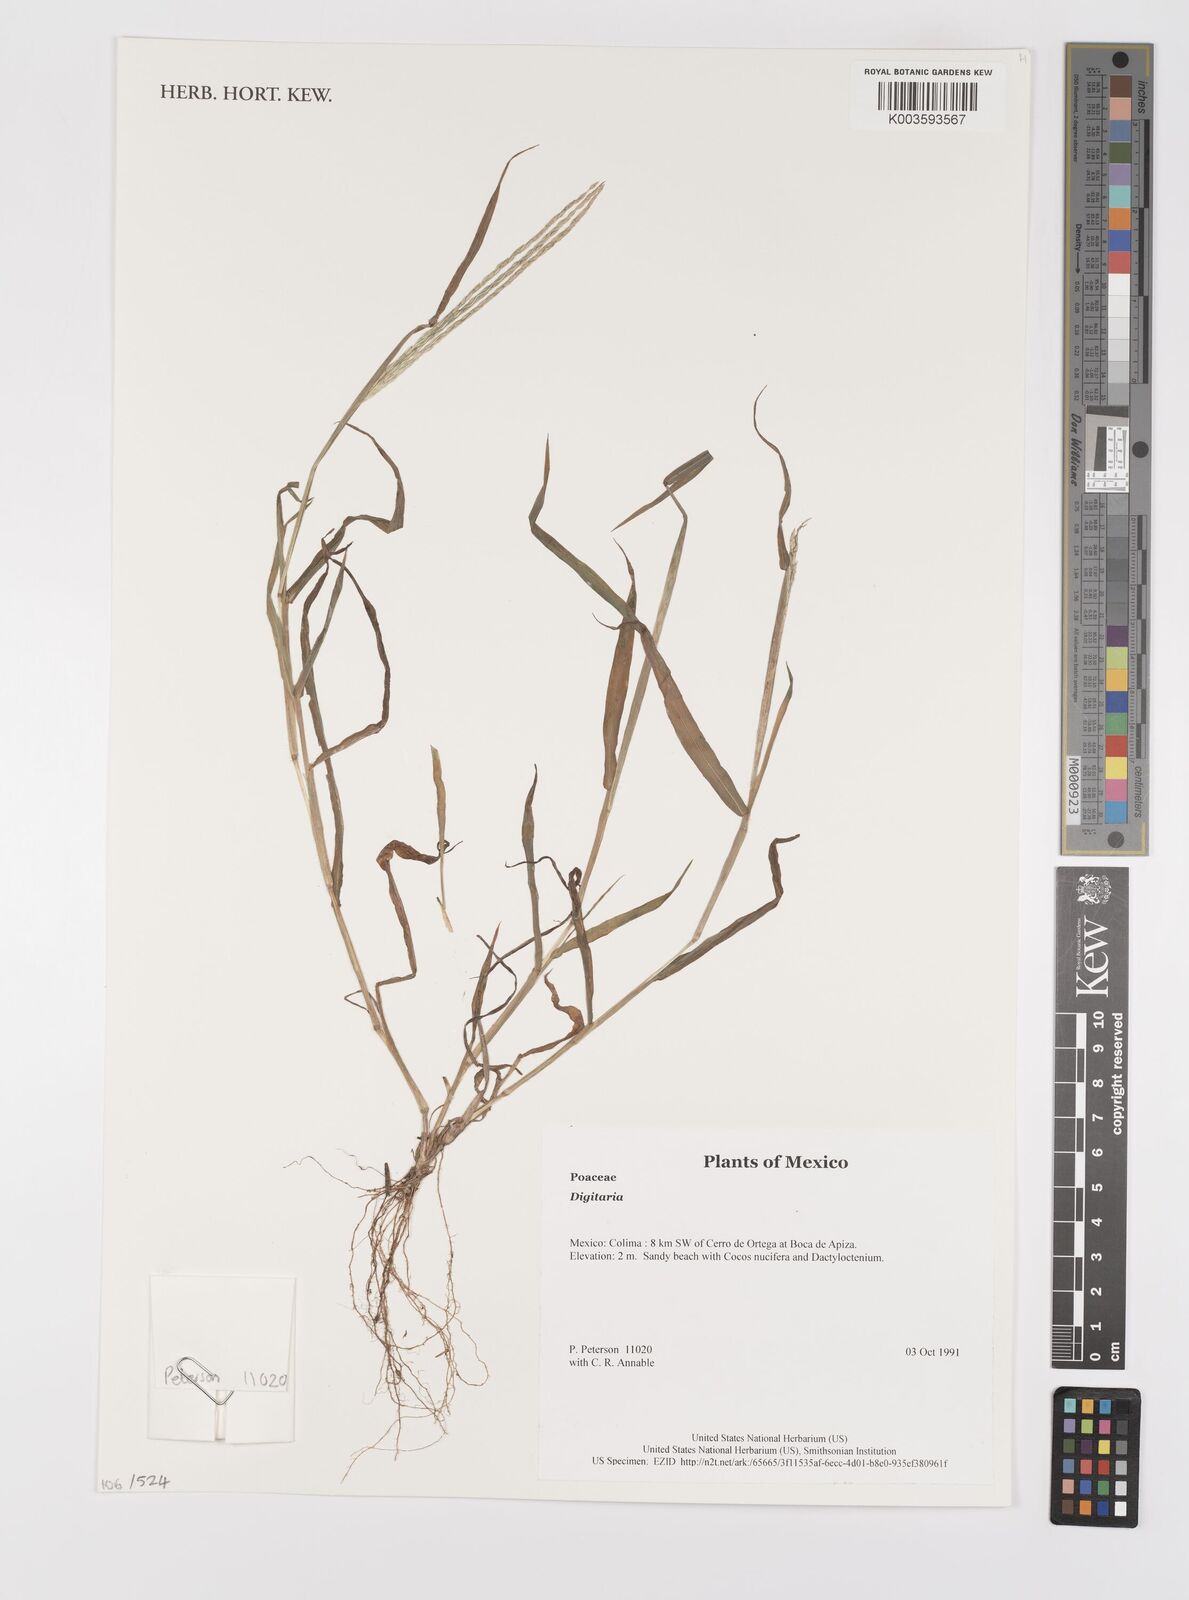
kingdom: Plantae
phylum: Tracheophyta
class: Liliopsida
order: Poales
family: Poaceae
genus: Digitaria
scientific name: Digitaria spec
